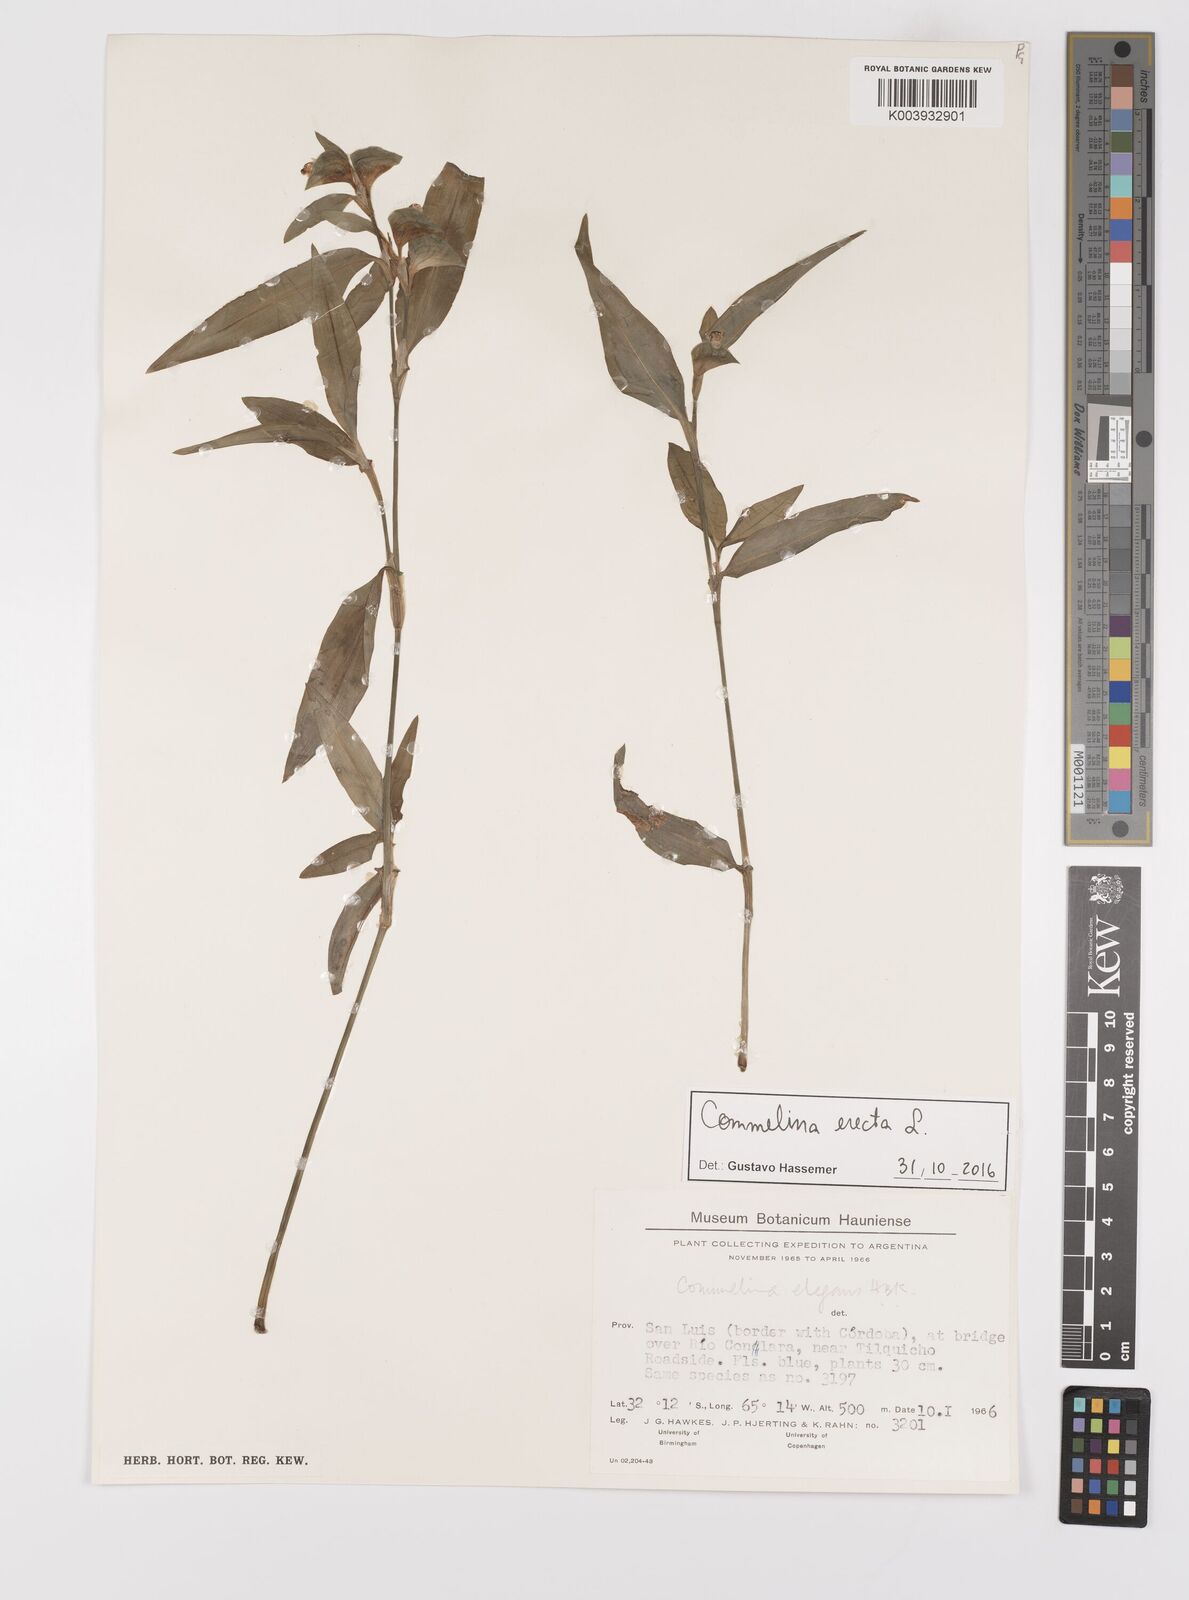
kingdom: Plantae
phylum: Tracheophyta
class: Liliopsida
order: Commelinales
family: Commelinaceae
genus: Commelina
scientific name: Commelina erecta
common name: Blousel blommetjie
